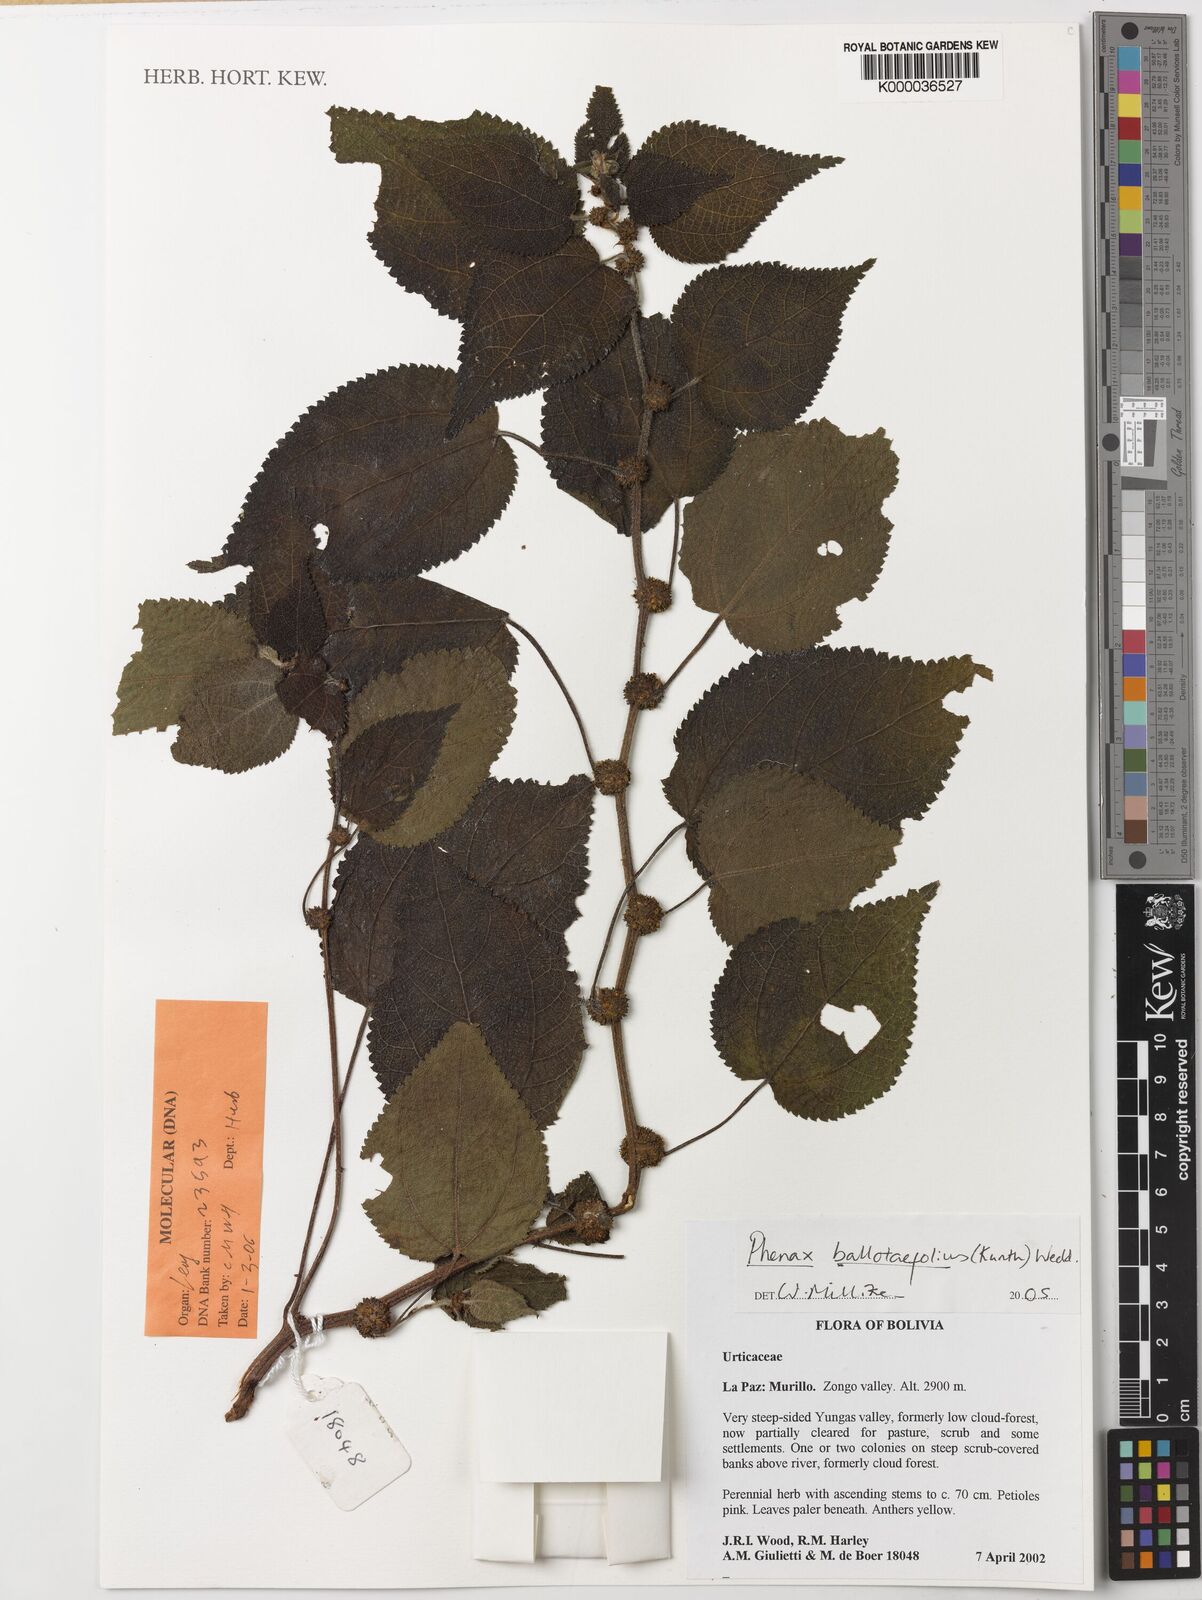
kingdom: Plantae
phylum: Tracheophyta
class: Magnoliopsida
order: Rosales
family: Urticaceae
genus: Phenax
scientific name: Phenax rugosus
